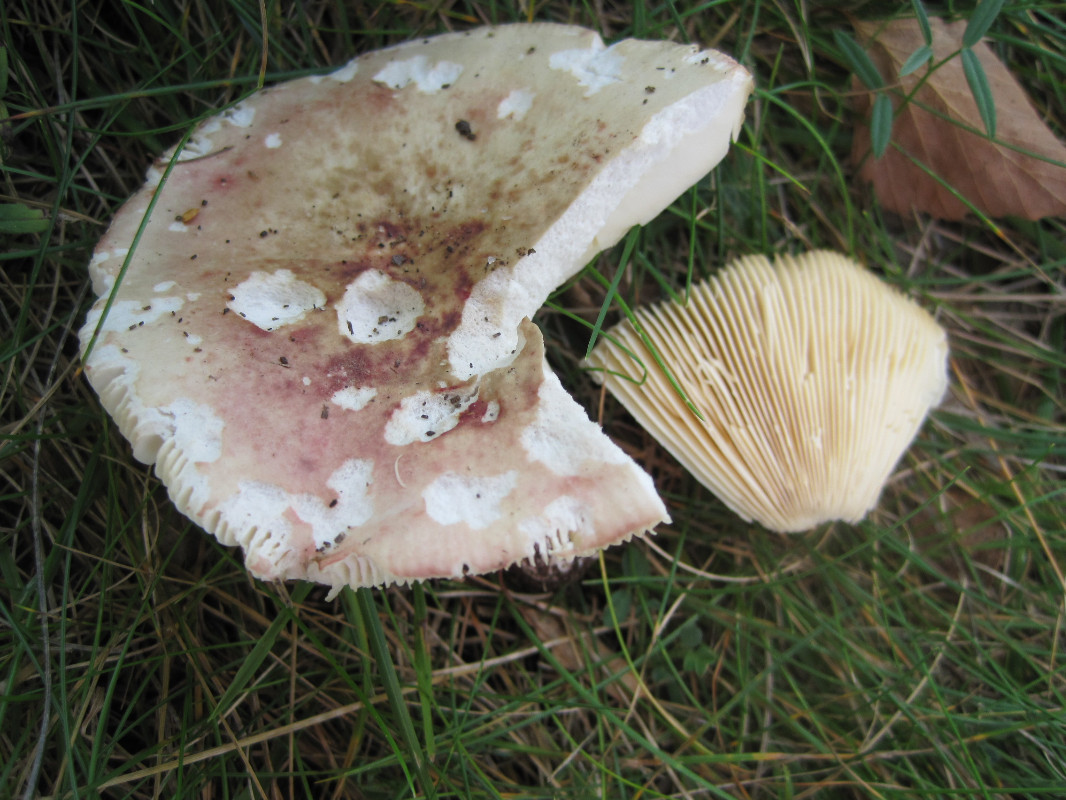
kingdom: Fungi
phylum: Basidiomycota
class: Agaricomycetes
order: Russulales
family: Russulaceae
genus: Russula
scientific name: Russula depallens
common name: falmende skørhat
